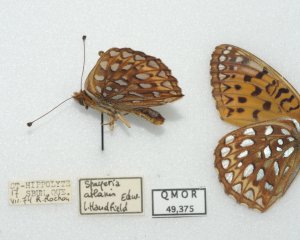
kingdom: Animalia
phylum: Arthropoda
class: Insecta
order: Lepidoptera
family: Nymphalidae
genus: Speyeria
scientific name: Speyeria atlantis
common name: Atlantis Fritillary
